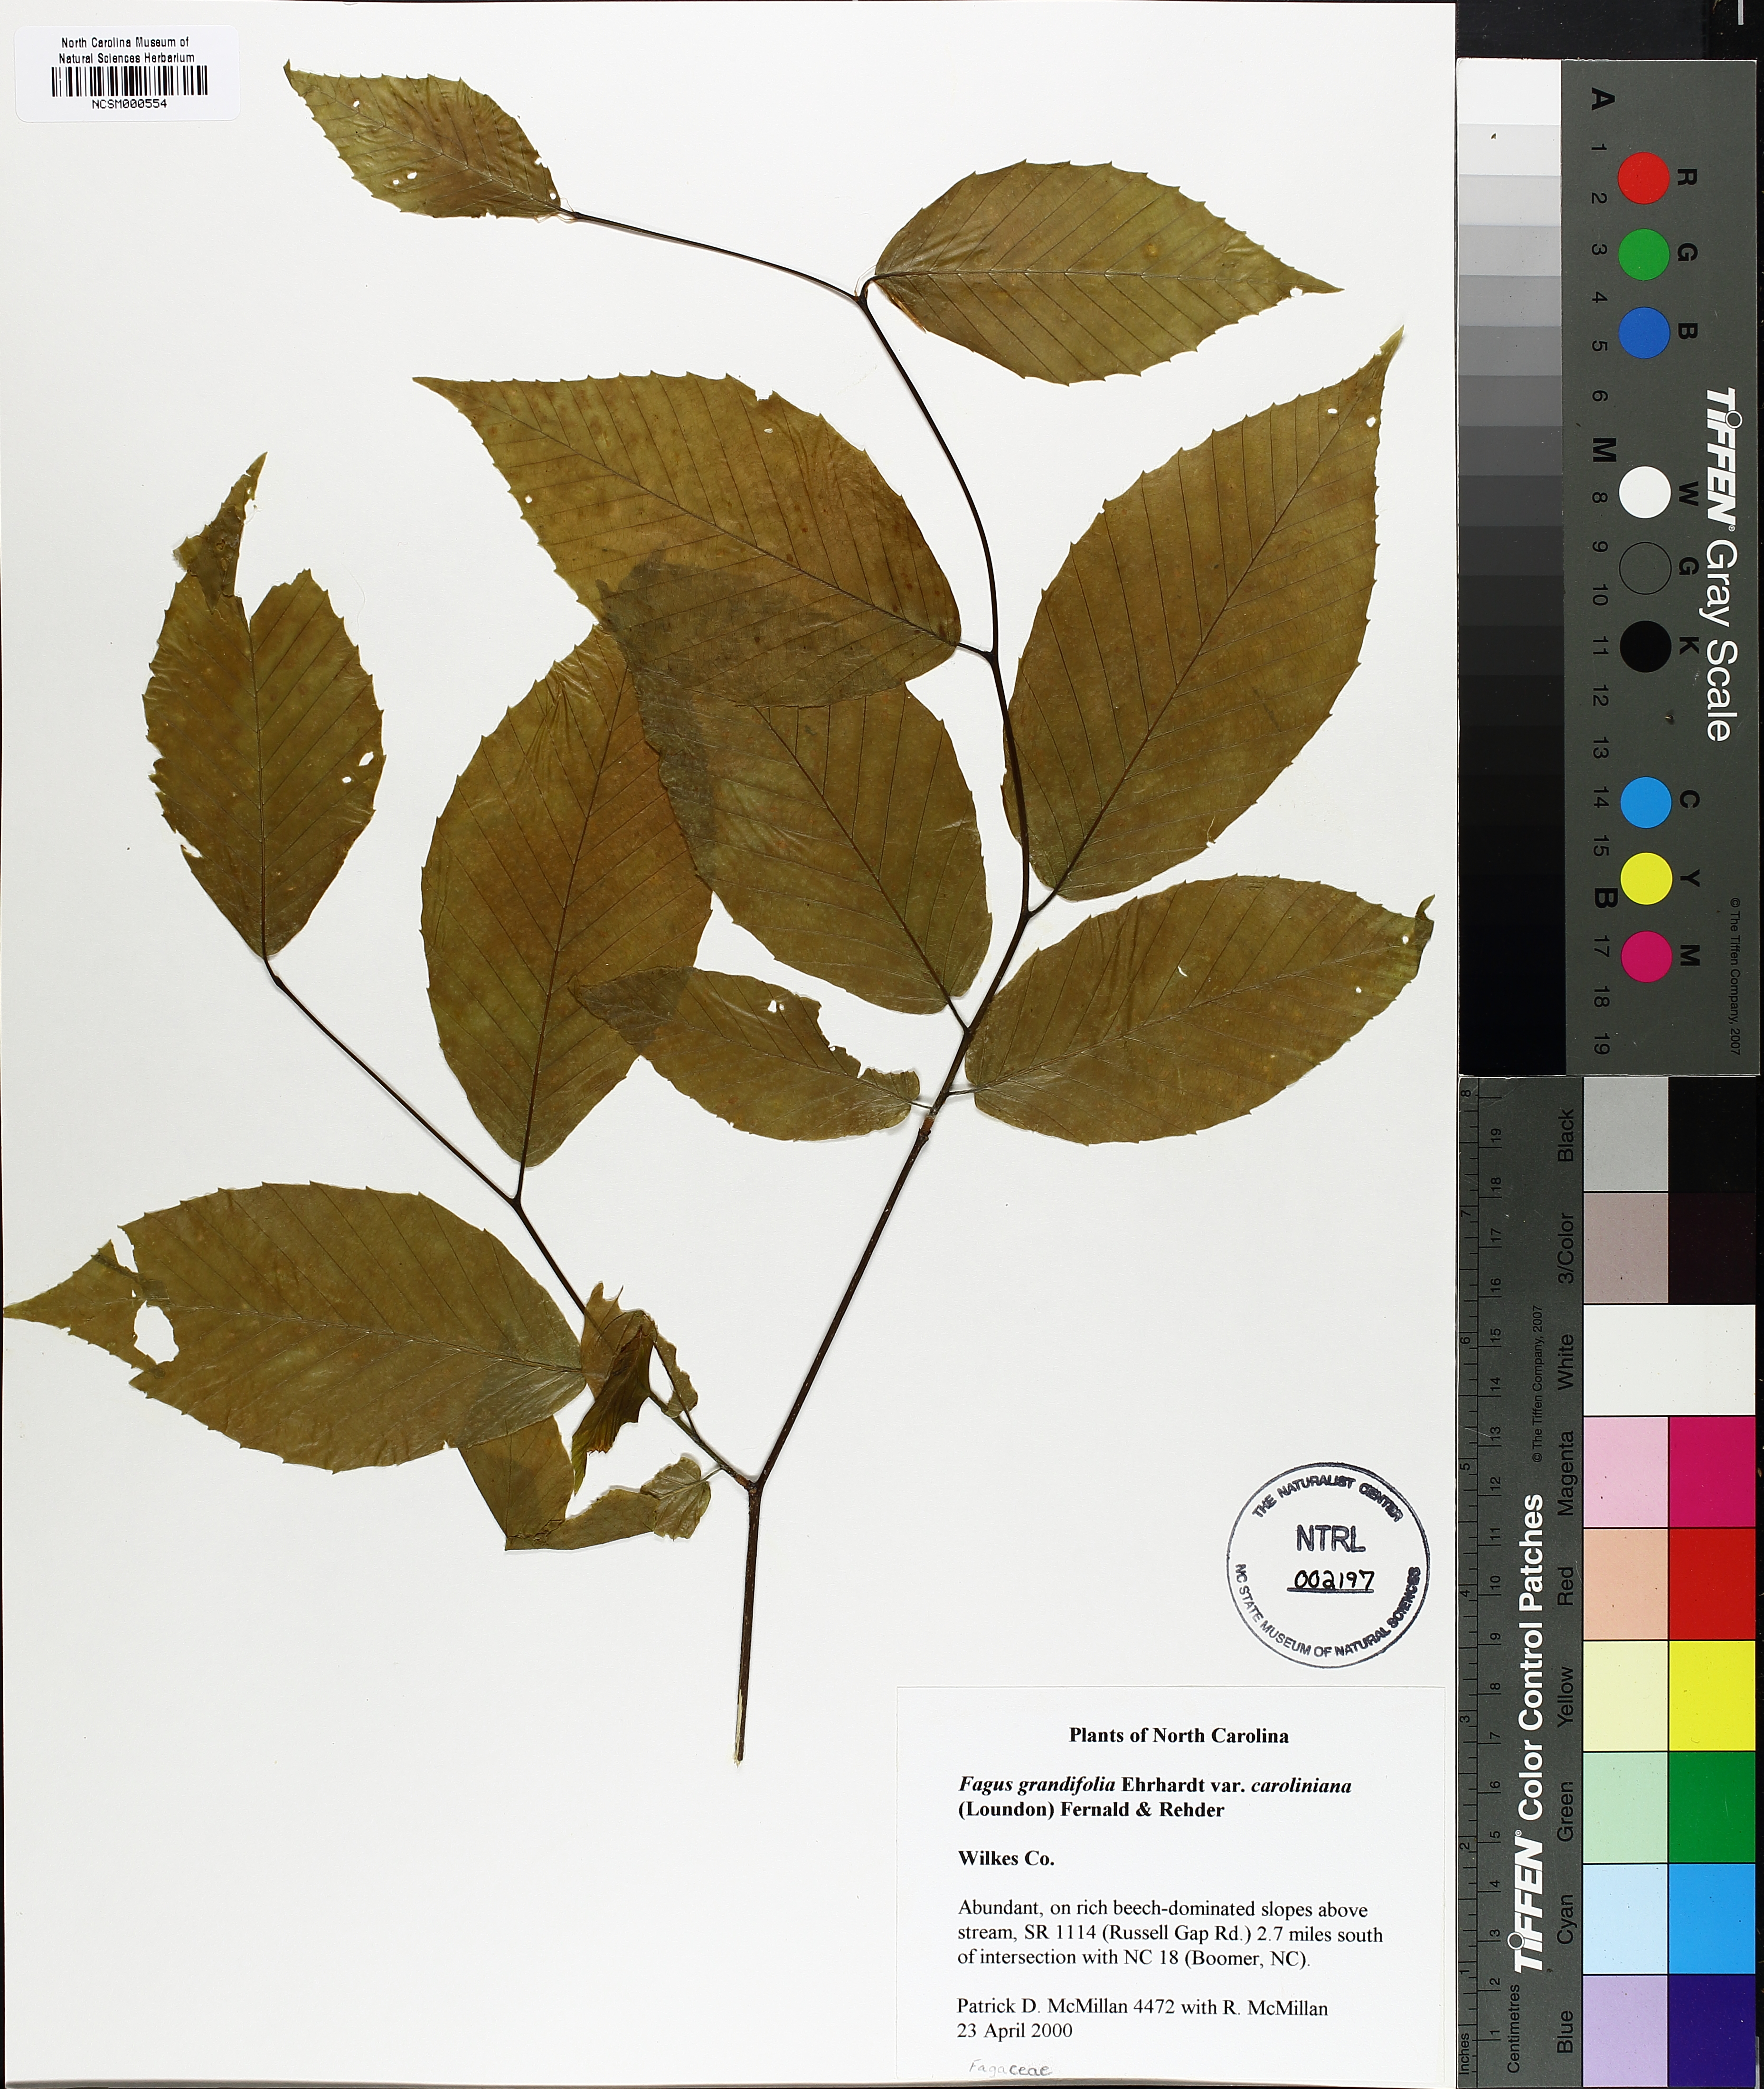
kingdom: Plantae
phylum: Tracheophyta
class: Magnoliopsida
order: Fagales
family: Fagaceae
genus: Fagus
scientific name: Fagus grandifolia
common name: American beech
